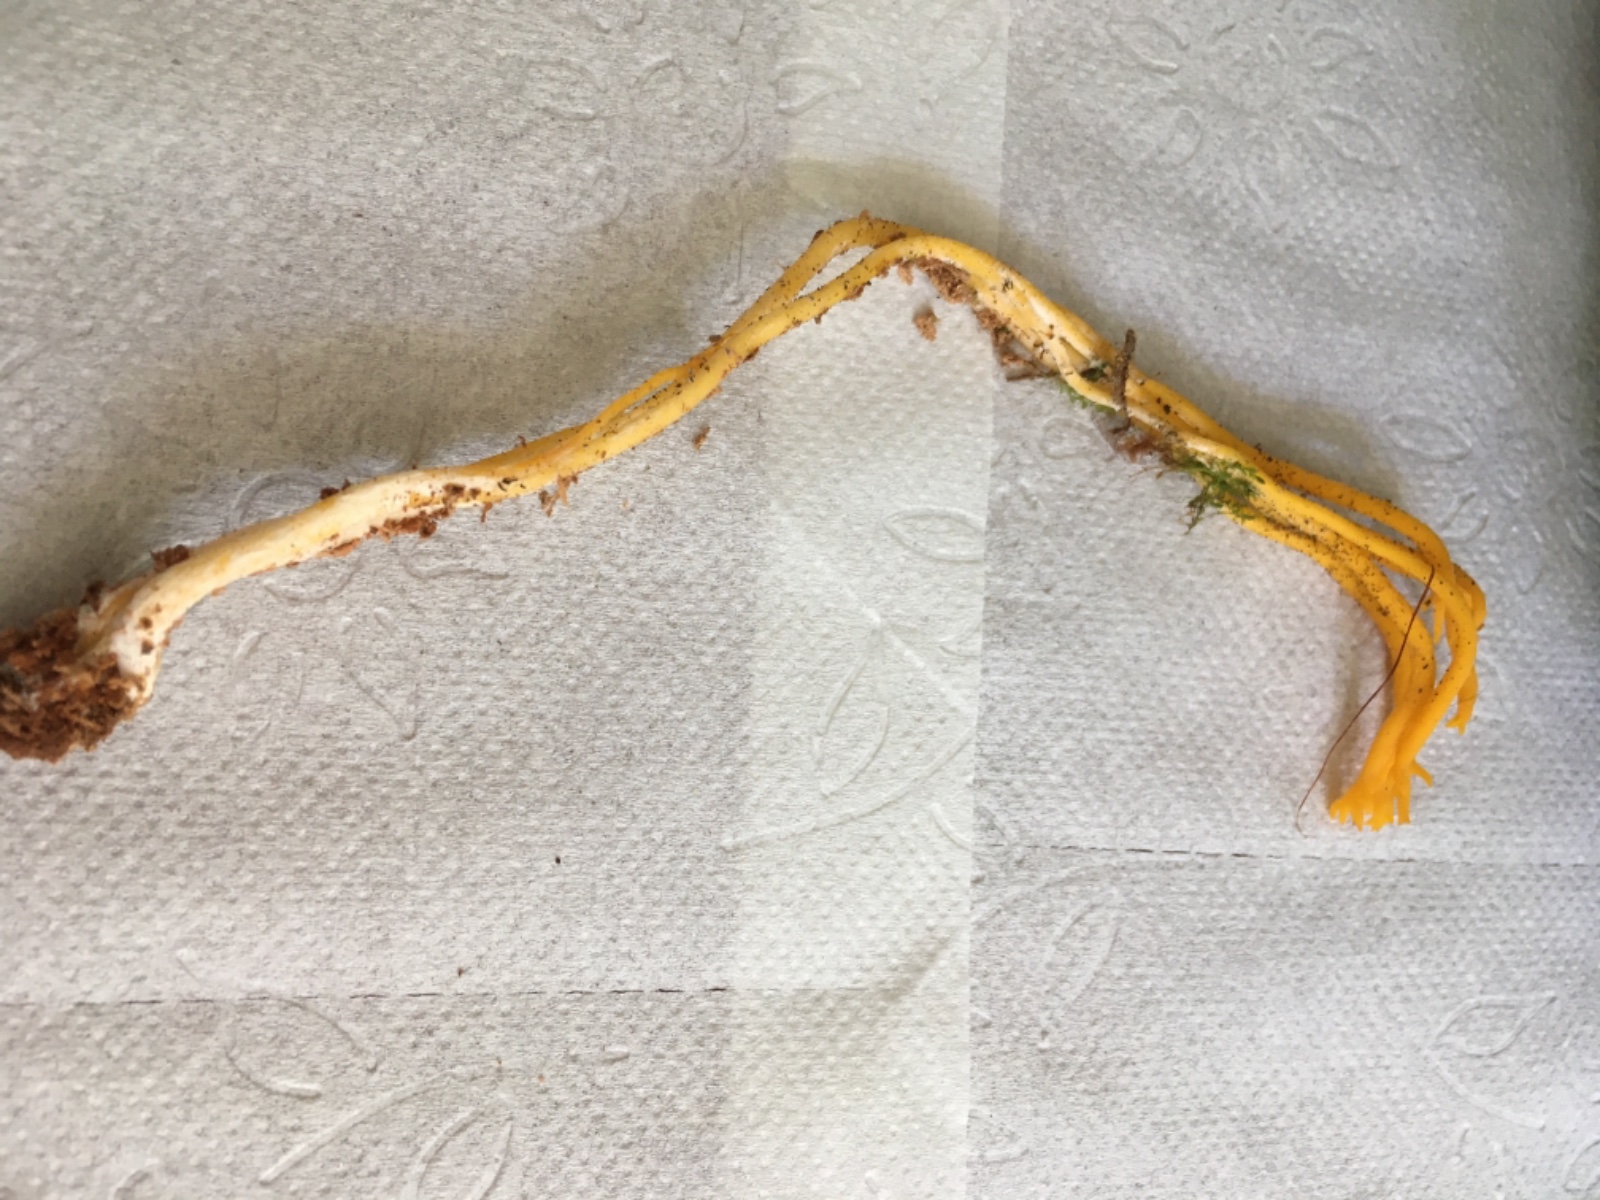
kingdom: Fungi
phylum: Basidiomycota
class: Dacrymycetes
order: Dacrymycetales
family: Dacrymycetaceae
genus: Calocera
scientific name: Calocera viscosa
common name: almindelig guldgaffel
